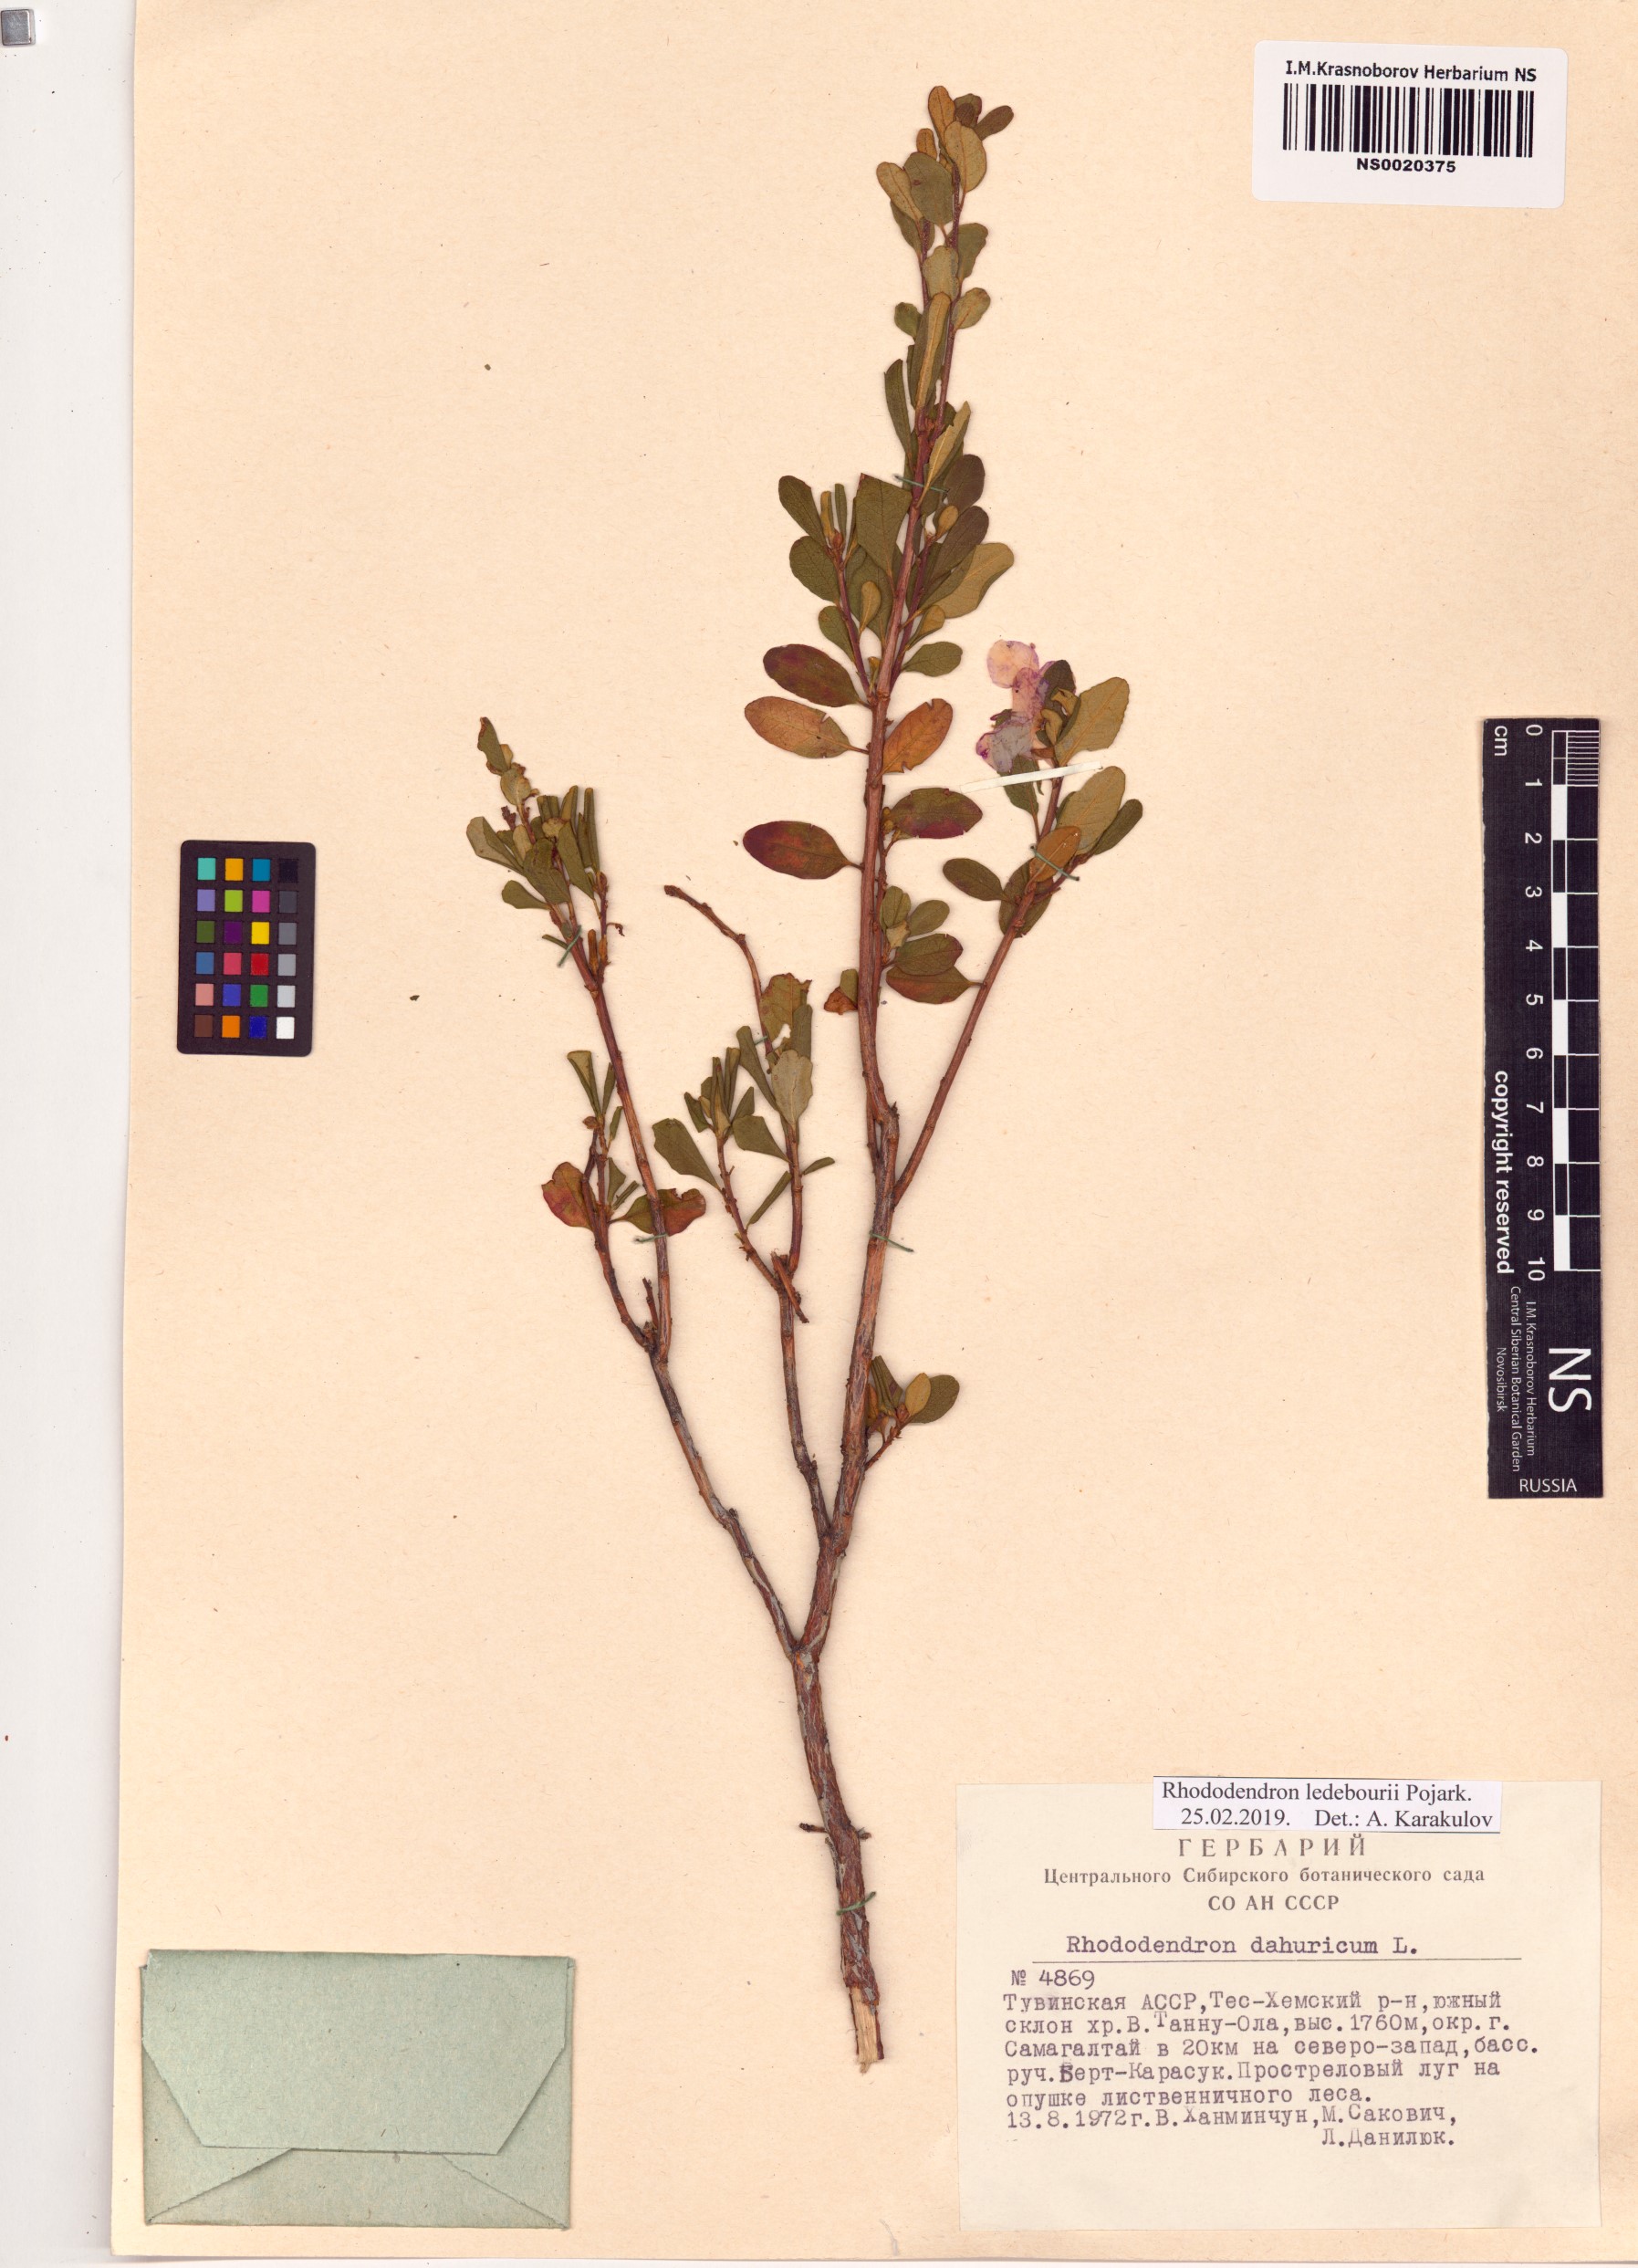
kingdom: Plantae
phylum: Tracheophyta
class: Magnoliopsida
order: Ericales
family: Ericaceae
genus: Rhododendron
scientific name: Rhododendron dauricum
